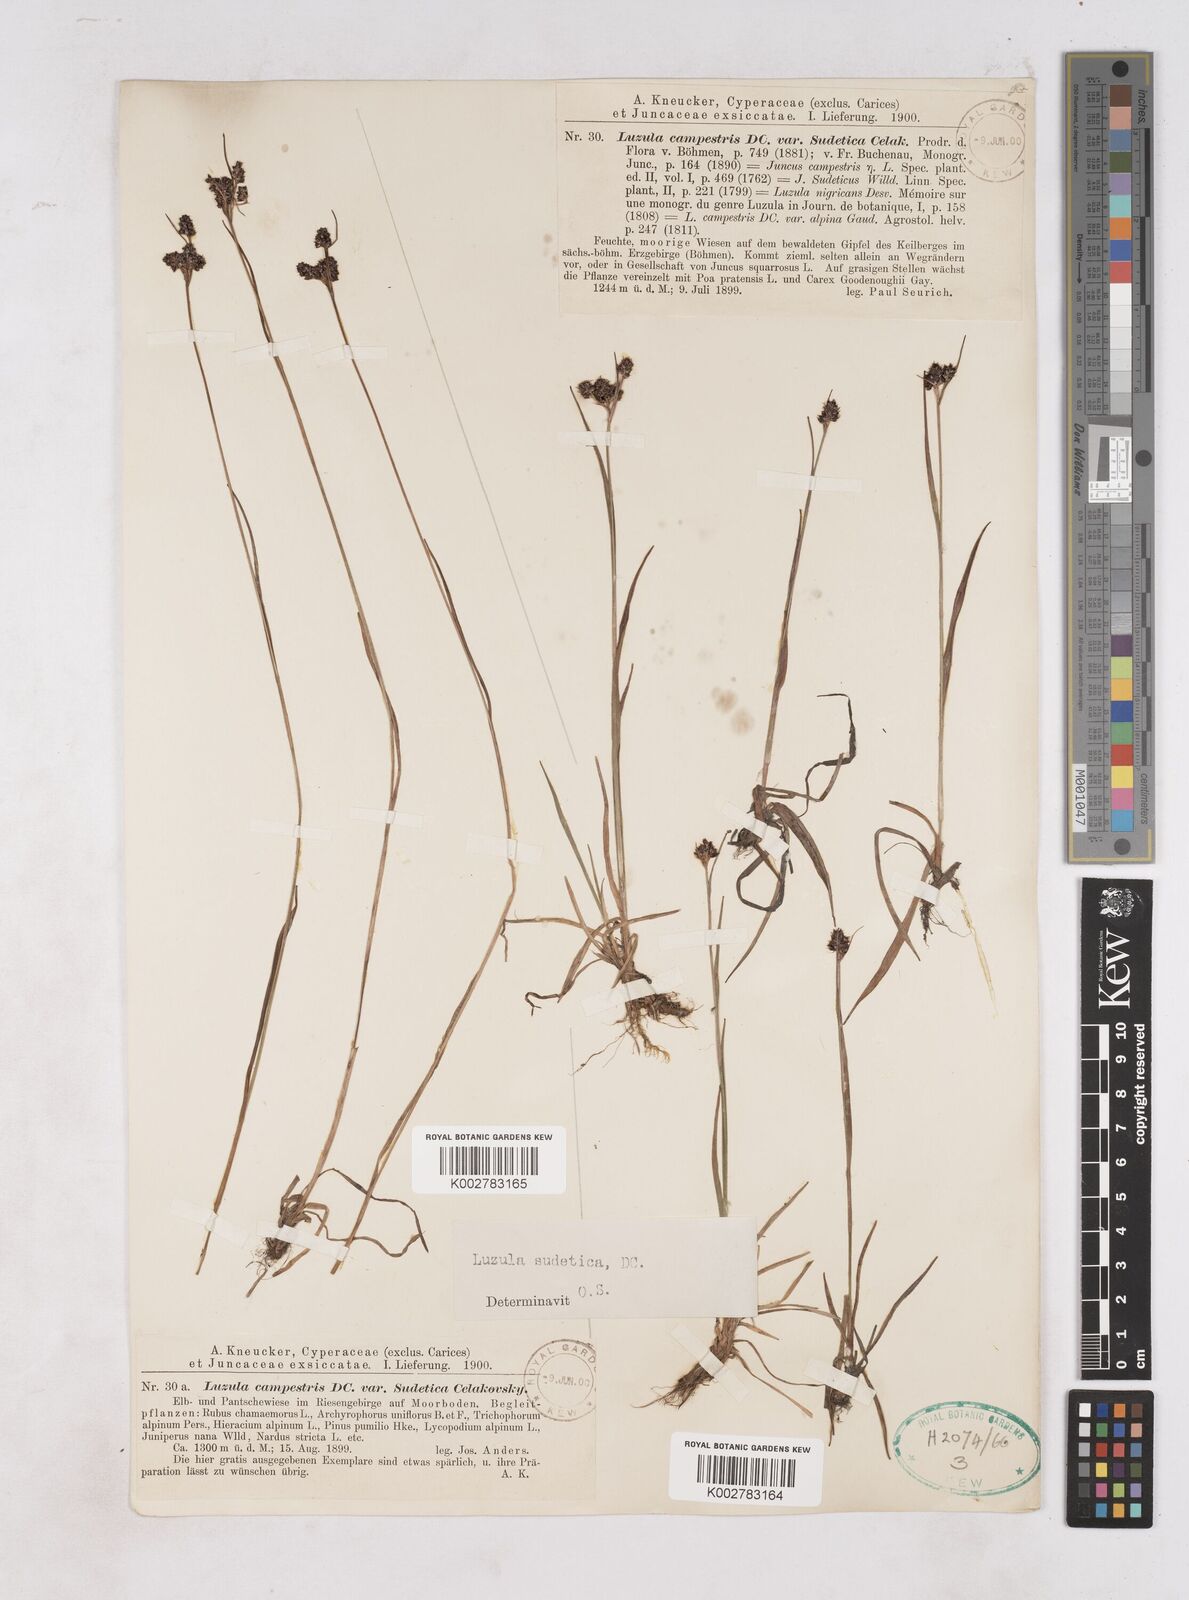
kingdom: Plantae
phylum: Tracheophyta
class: Liliopsida
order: Poales
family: Juncaceae
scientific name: Juncaceae
